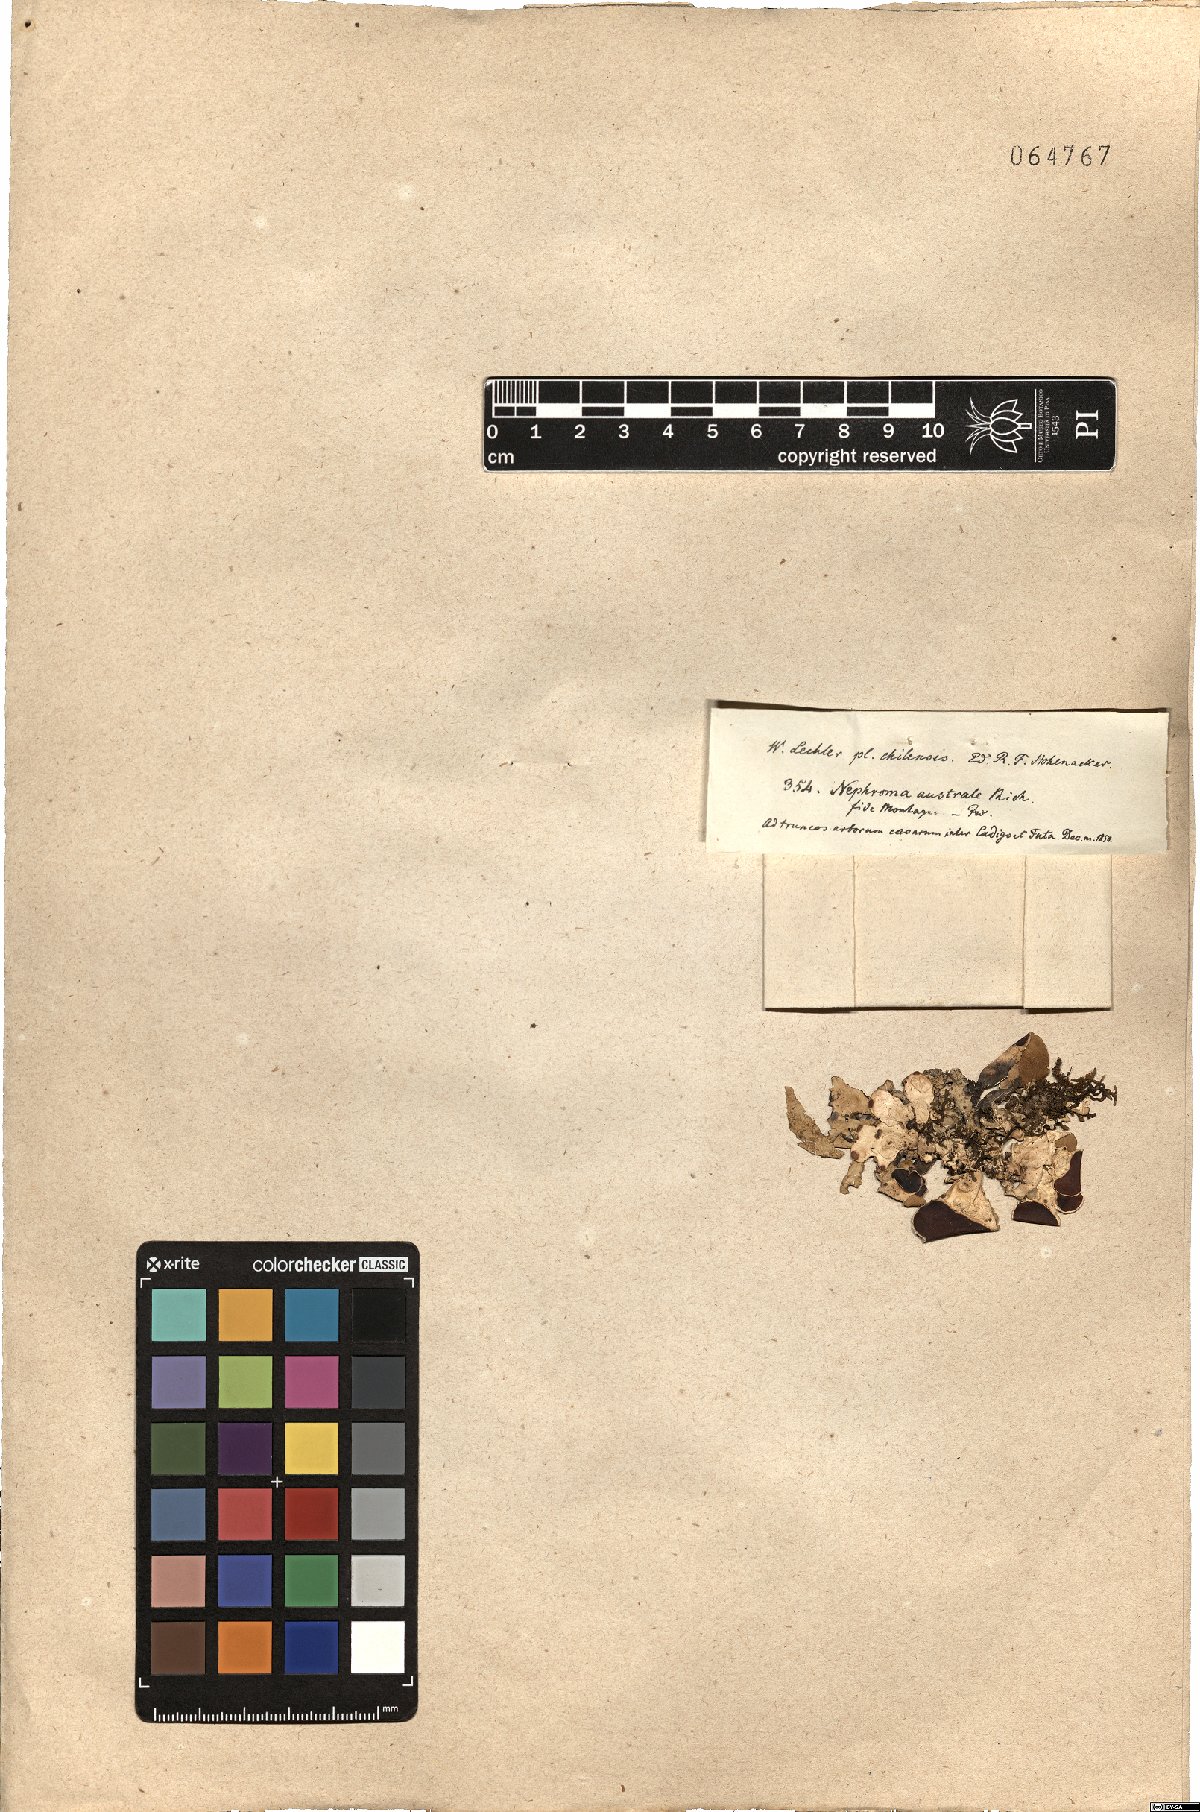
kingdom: Fungi
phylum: Ascomycota
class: Lecanoromycetes
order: Peltigerales
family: Nephromataceae
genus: Nephroma
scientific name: Nephroma australe
